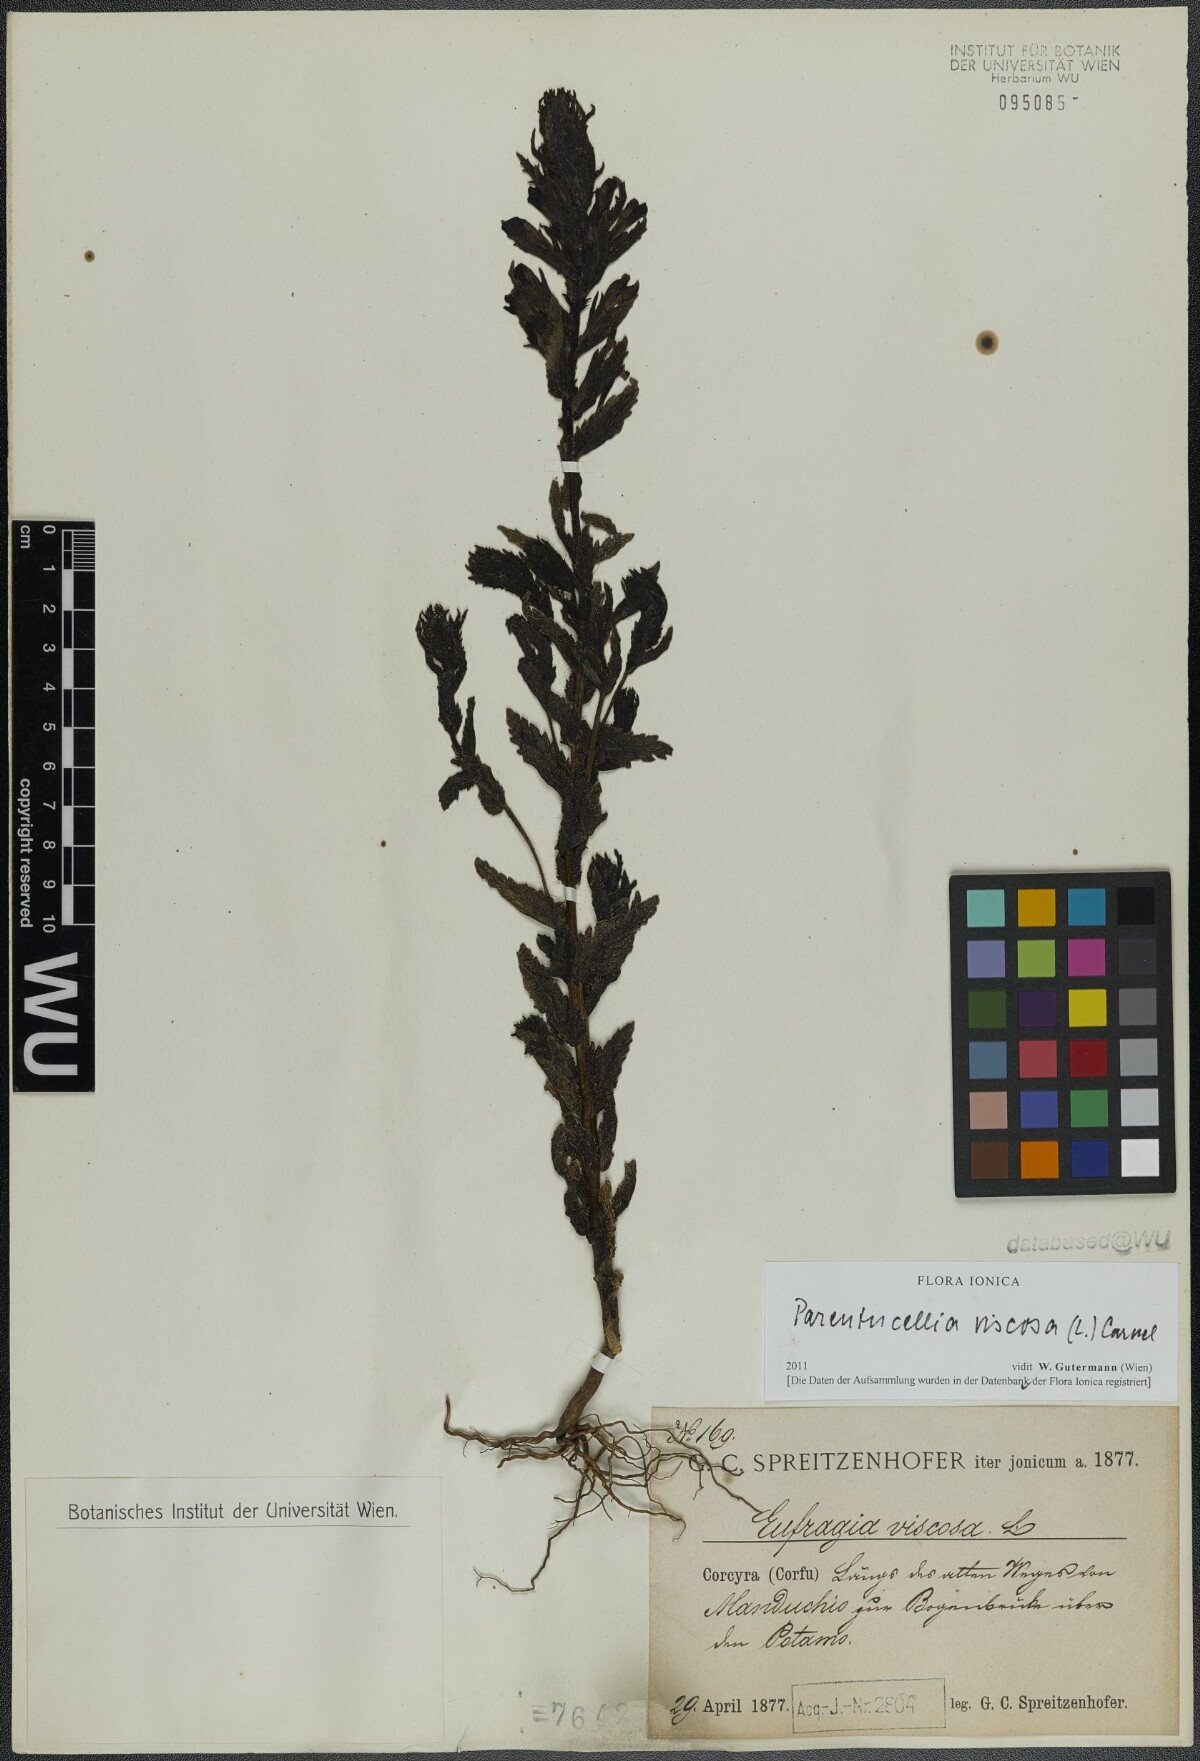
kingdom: Plantae
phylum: Tracheophyta
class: Magnoliopsida
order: Lamiales
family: Orobanchaceae
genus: Bellardia
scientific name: Bellardia viscosa
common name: Sticky parentucellia
